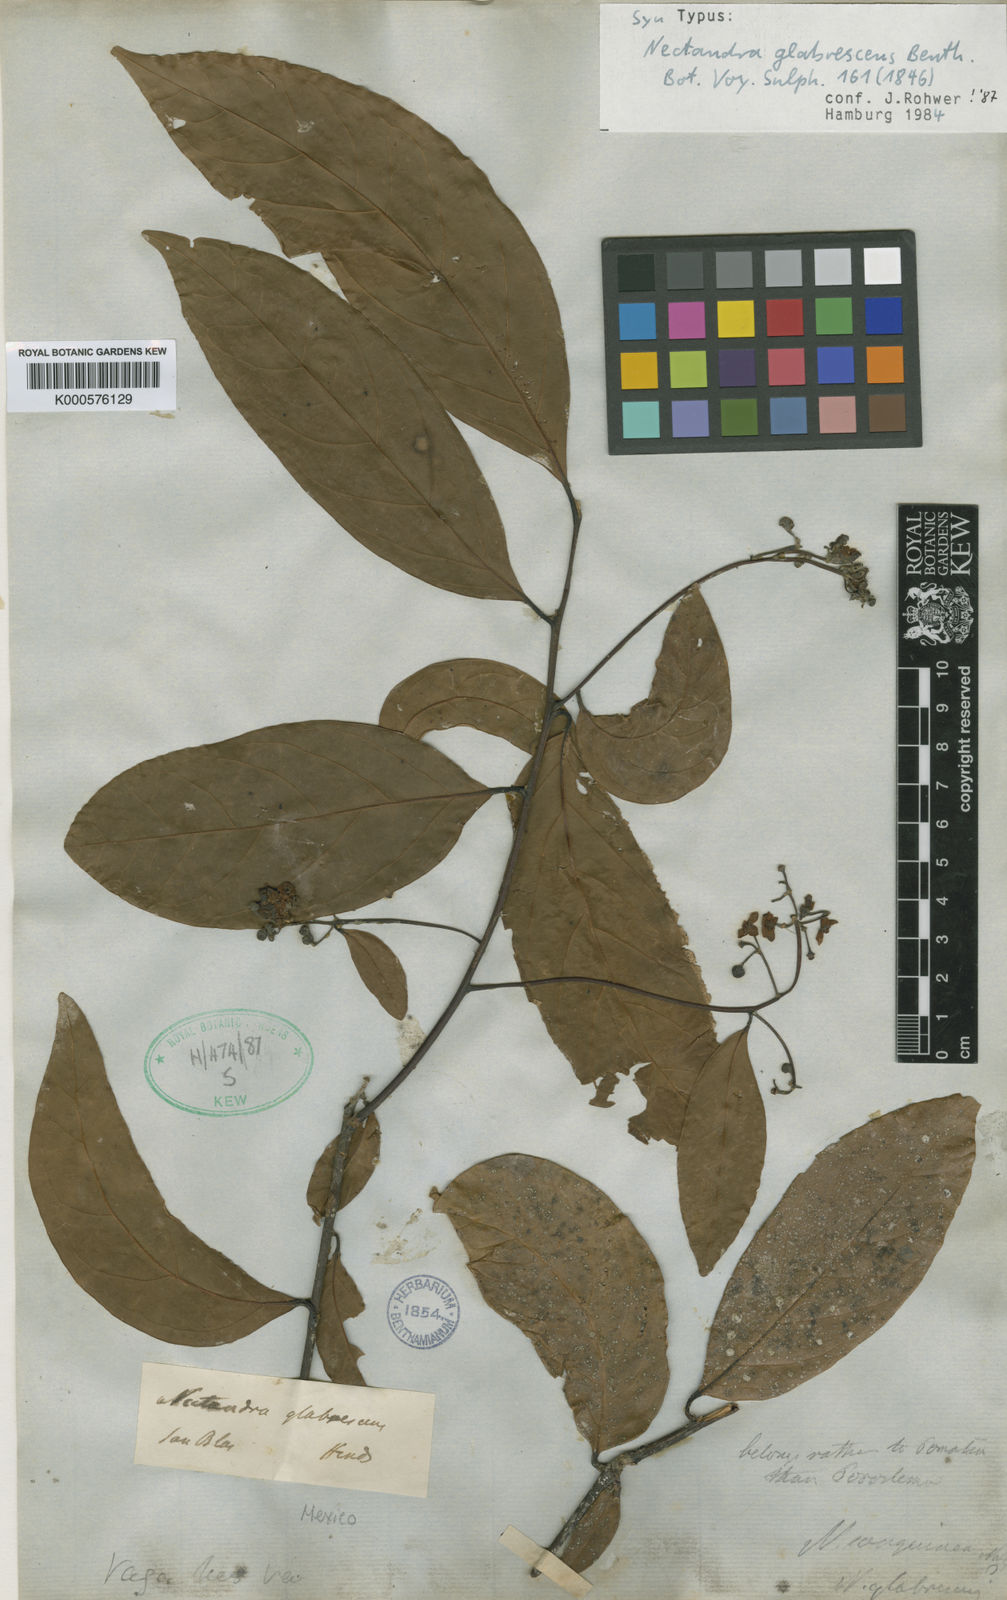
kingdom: Plantae
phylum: Tracheophyta
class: Magnoliopsida
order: Laurales
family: Lauraceae
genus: Nectandra
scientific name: Nectandra hihua
